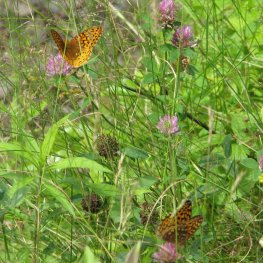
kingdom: Animalia
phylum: Arthropoda
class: Insecta
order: Lepidoptera
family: Nymphalidae
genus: Speyeria
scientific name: Speyeria cybele
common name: Great Spangled Fritillary
